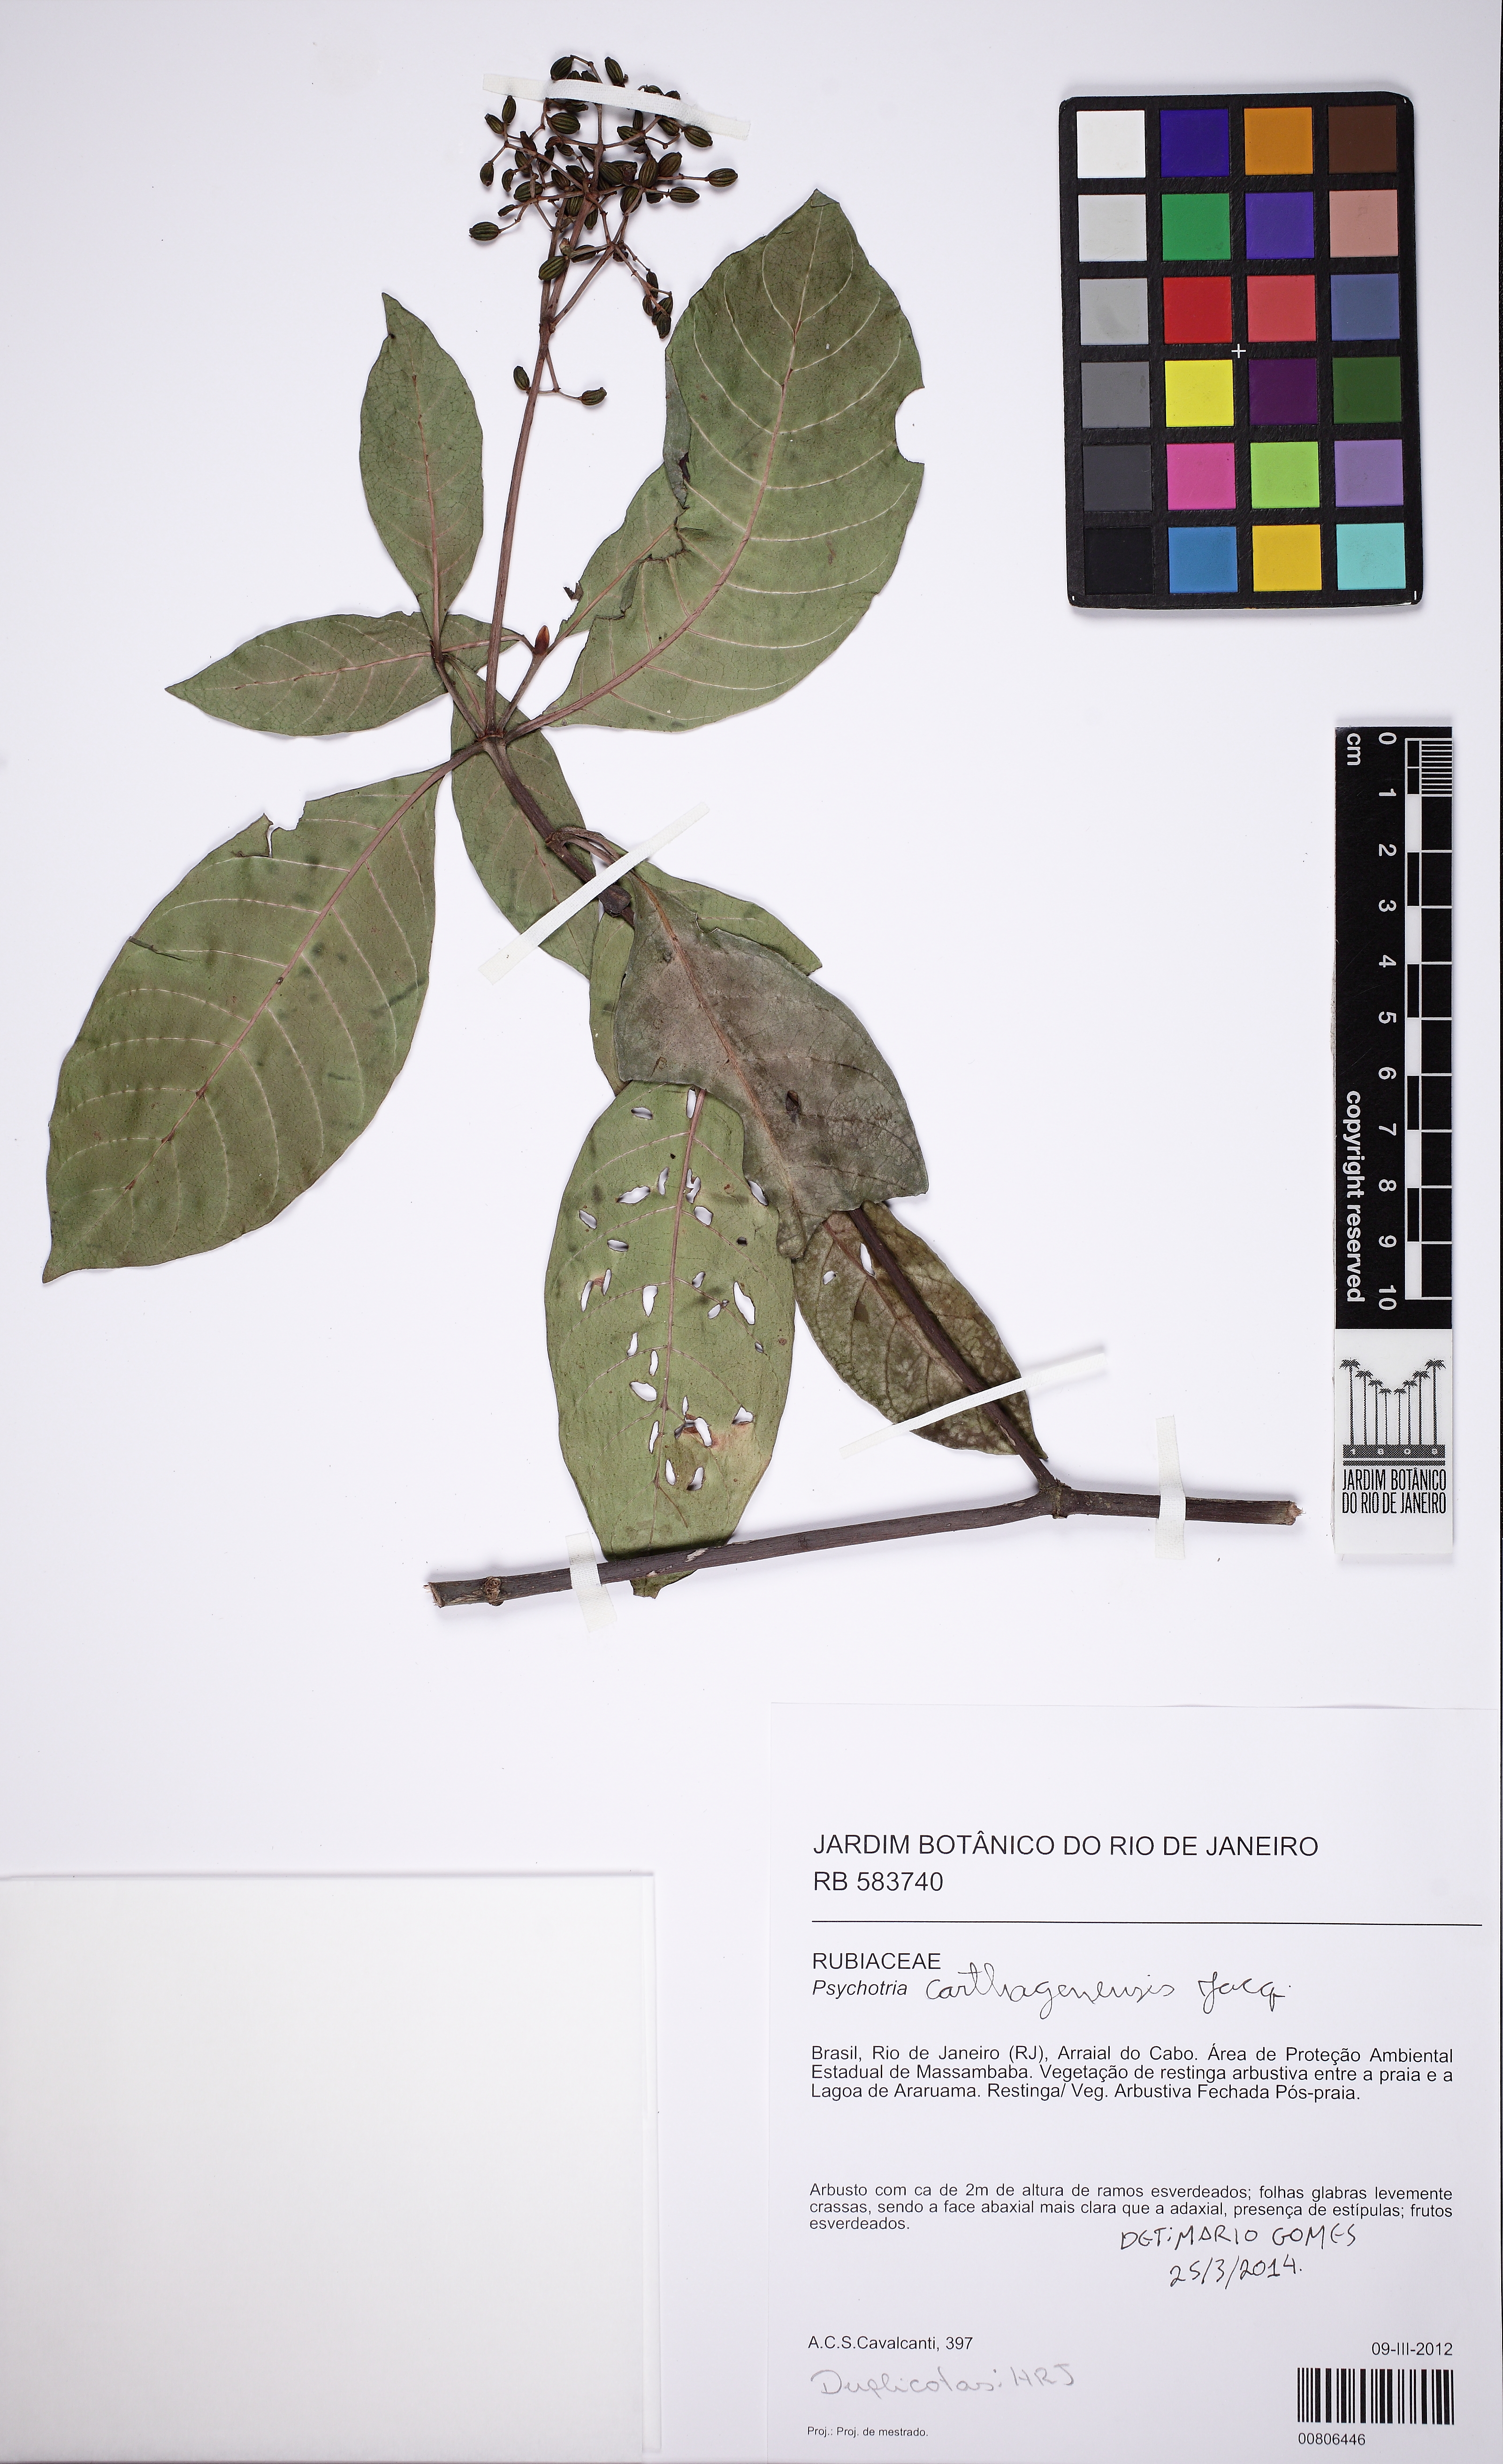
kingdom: Plantae
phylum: Tracheophyta
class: Magnoliopsida
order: Gentianales
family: Rubiaceae
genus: Psychotria
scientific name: Psychotria carthagenensis
